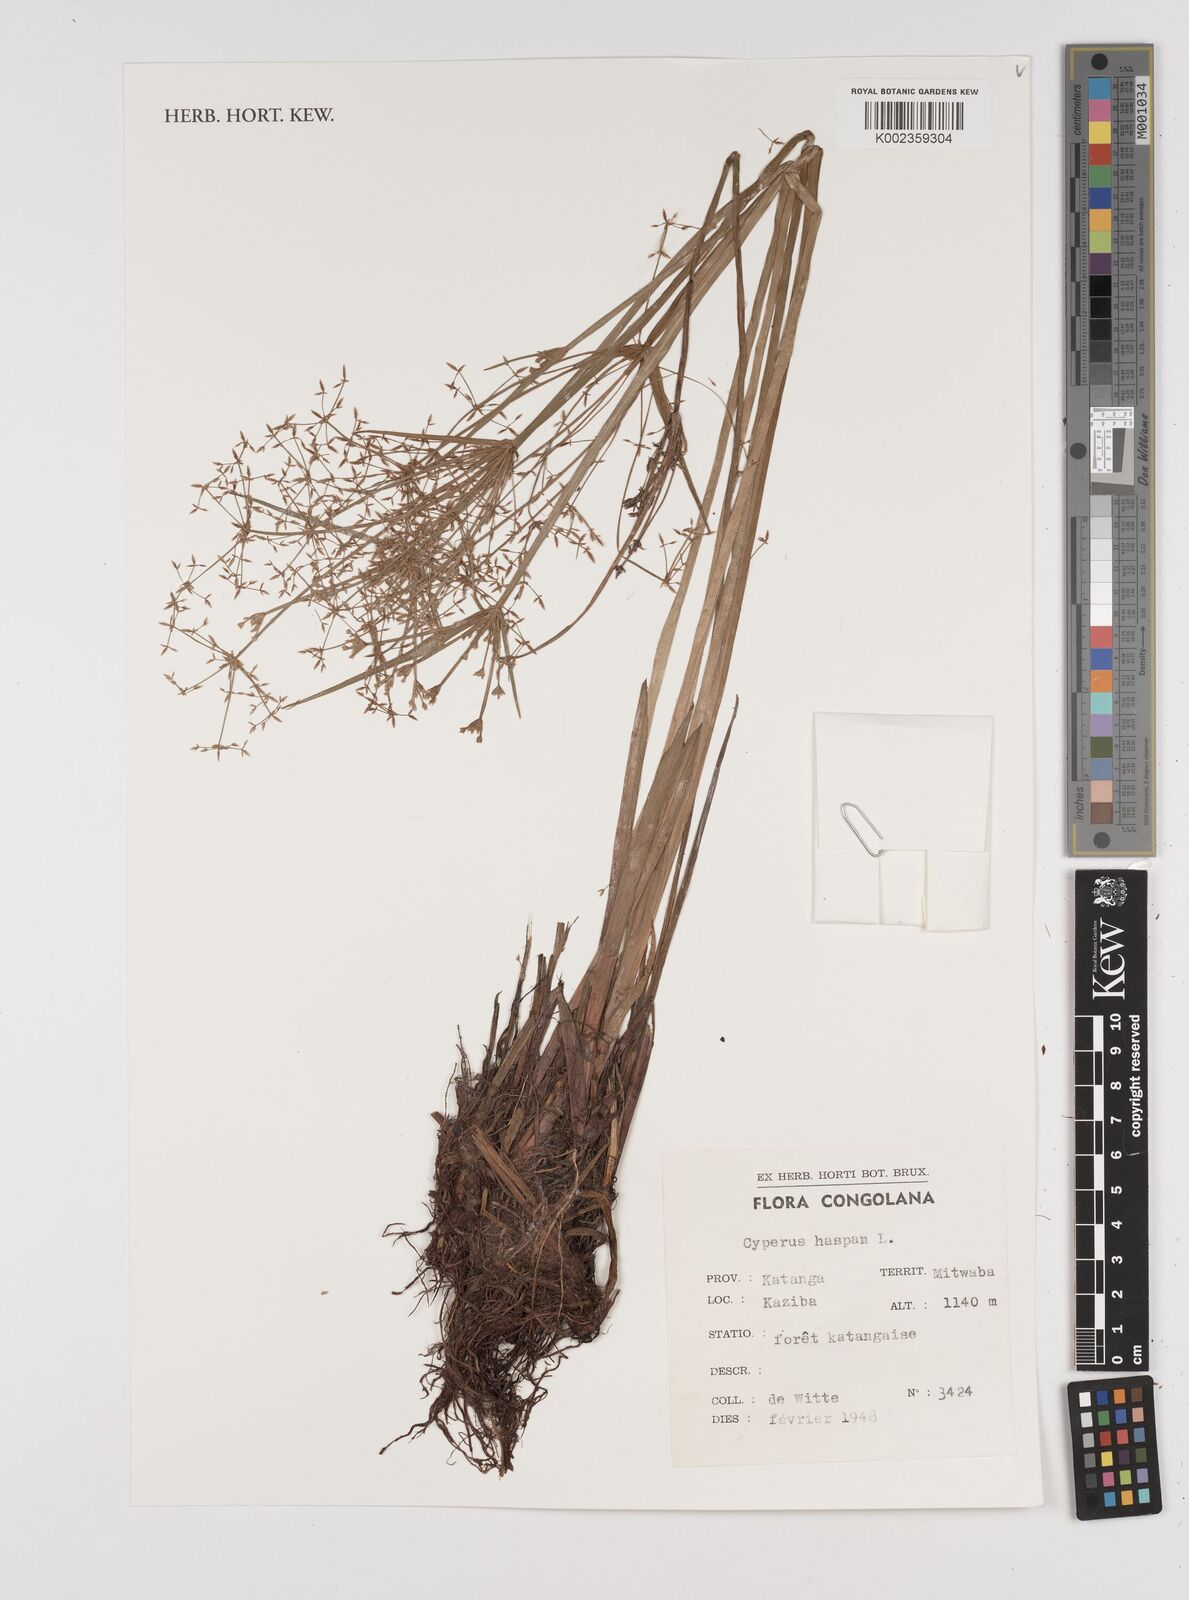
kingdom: Plantae
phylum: Tracheophyta
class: Liliopsida
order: Poales
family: Cyperaceae
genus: Cyperus
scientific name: Cyperus haspan
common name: Haspan flatsedge
